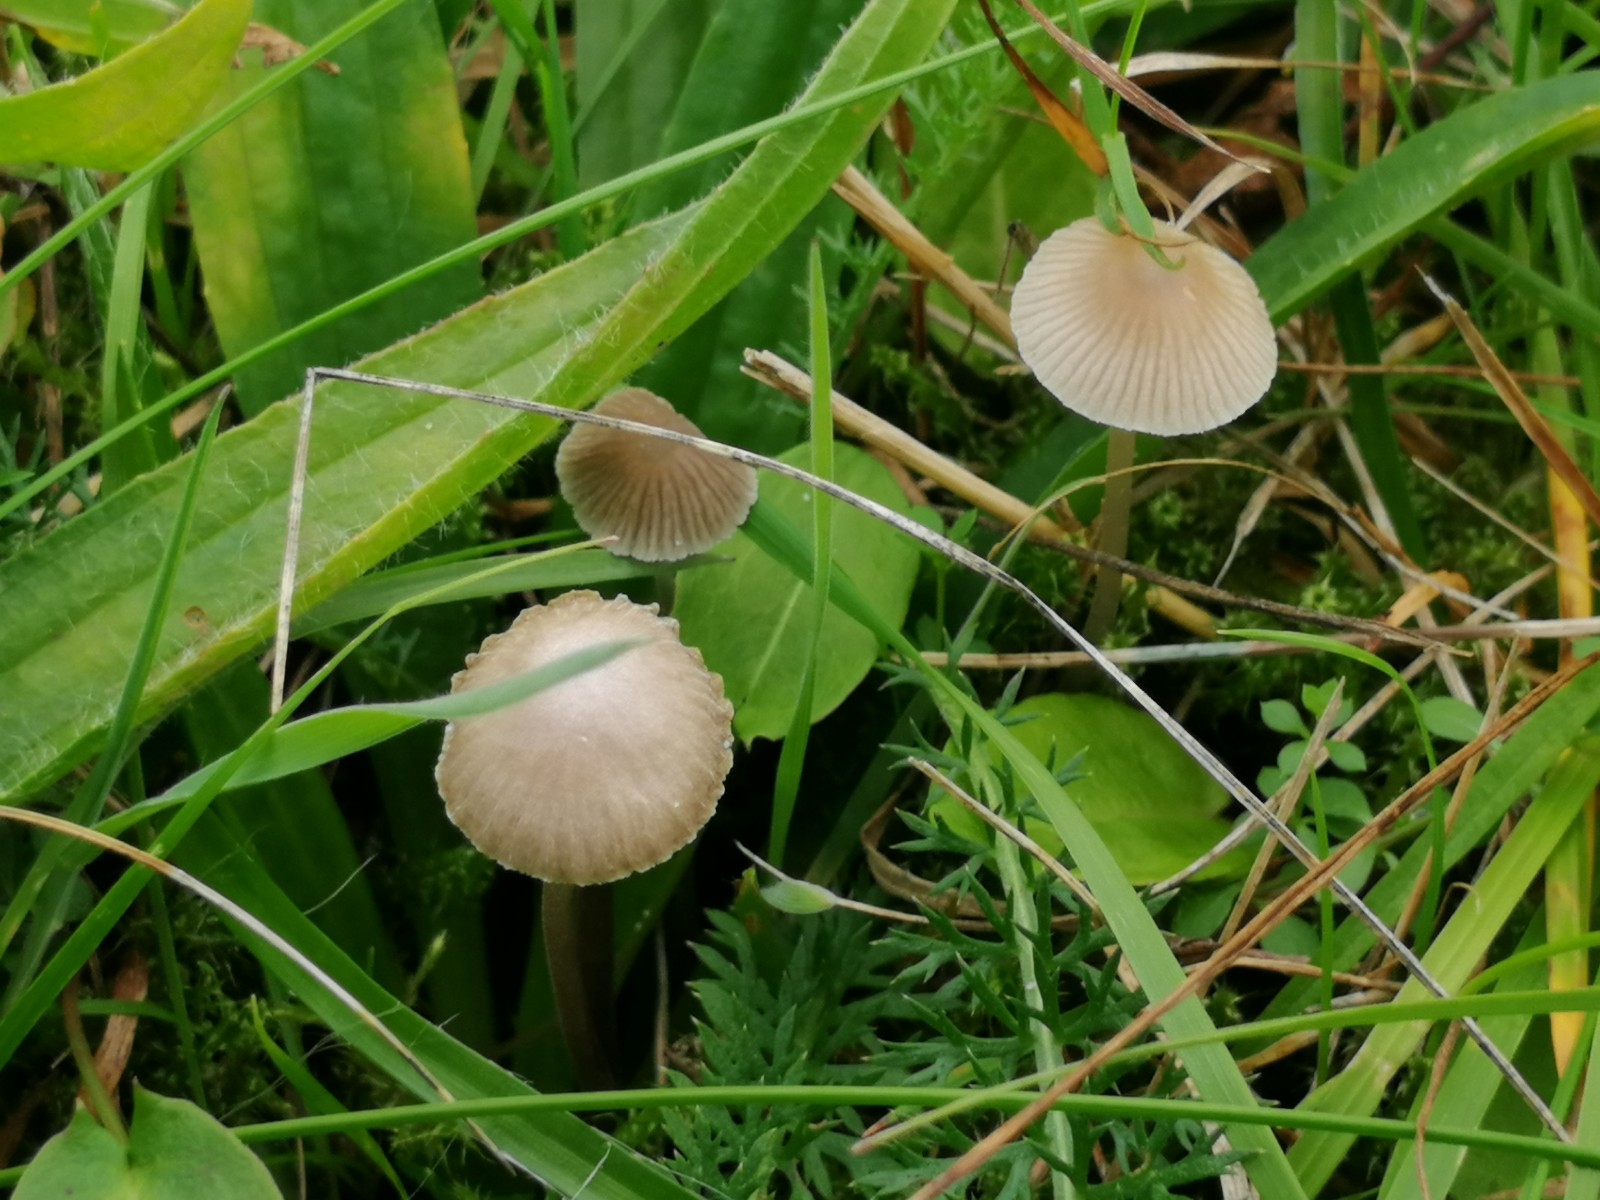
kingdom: Fungi
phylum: Basidiomycota
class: Agaricomycetes
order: Agaricales
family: Mycenaceae
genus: Mycena
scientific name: Mycena
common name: huesvamp
